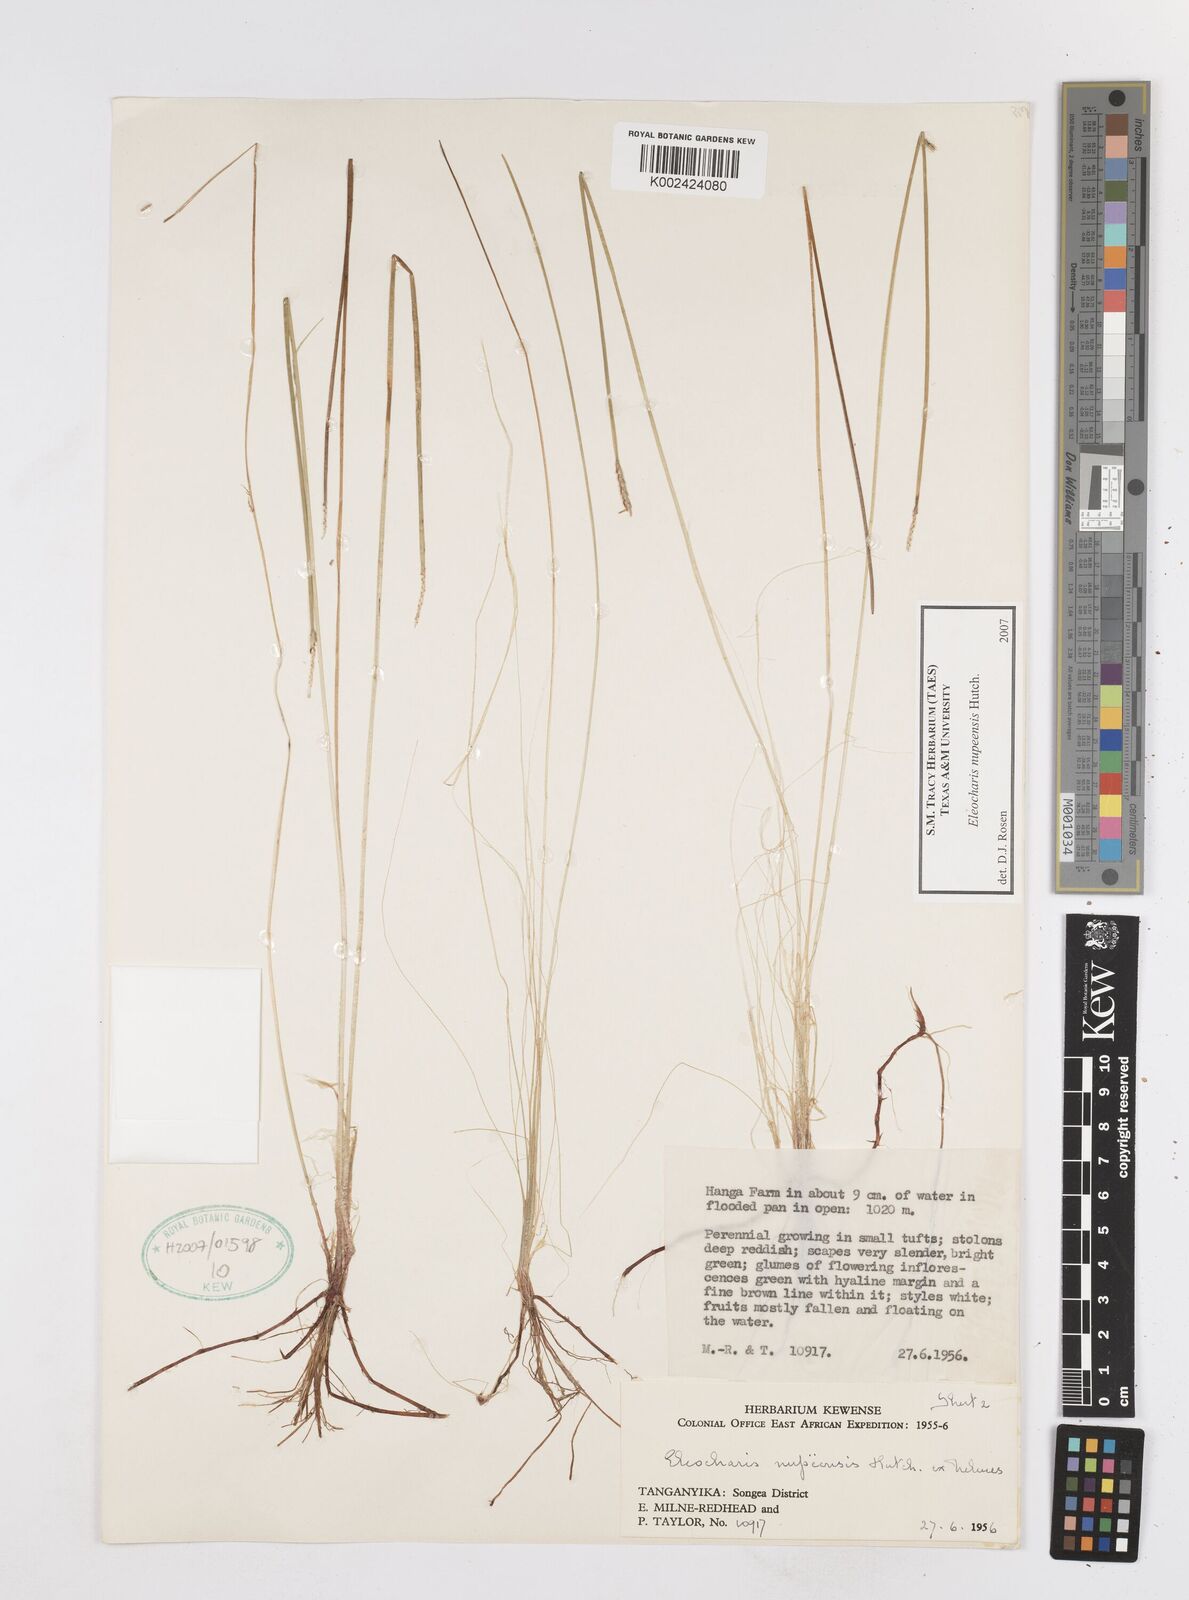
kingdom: Plantae
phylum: Tracheophyta
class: Liliopsida
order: Poales
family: Cyperaceae
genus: Eleocharis
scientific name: Eleocharis nupeensis
